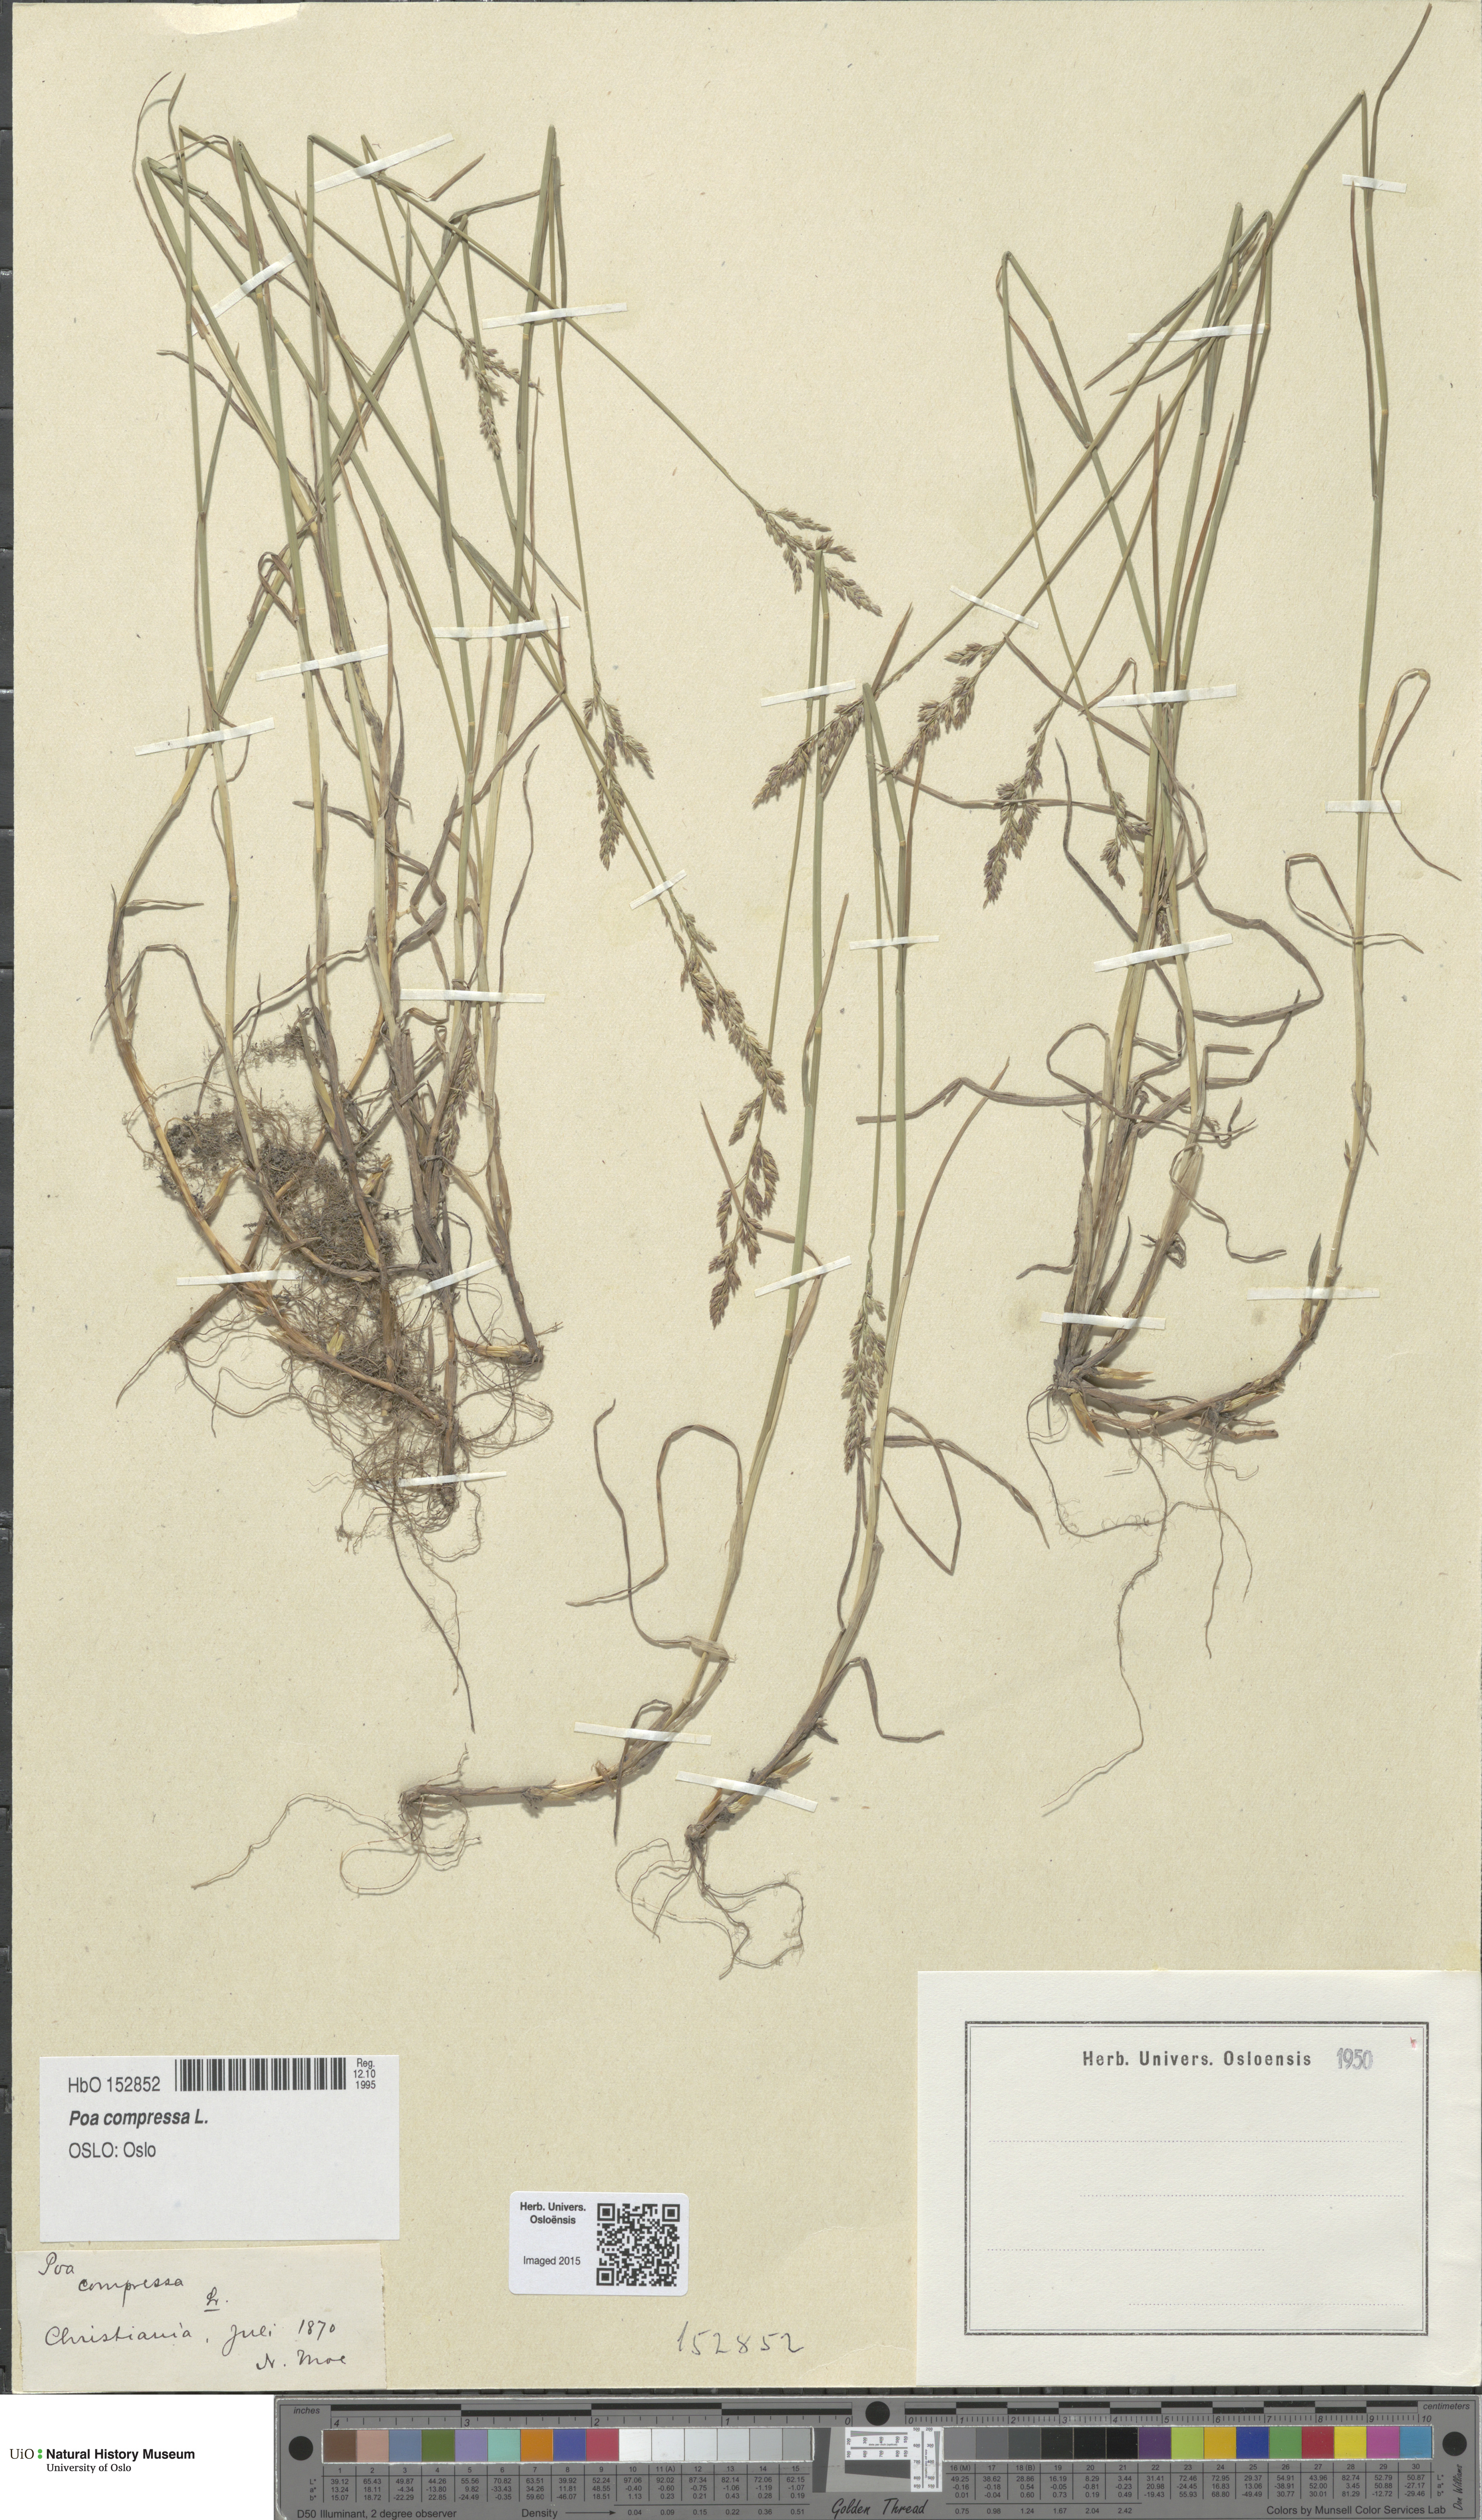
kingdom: Plantae
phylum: Tracheophyta
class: Liliopsida
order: Poales
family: Poaceae
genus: Poa
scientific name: Poa compressa
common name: Canada bluegrass
